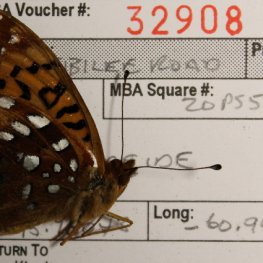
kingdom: Animalia
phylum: Arthropoda
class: Insecta
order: Lepidoptera
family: Nymphalidae
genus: Speyeria
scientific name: Speyeria cybele
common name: Great Spangled Fritillary
